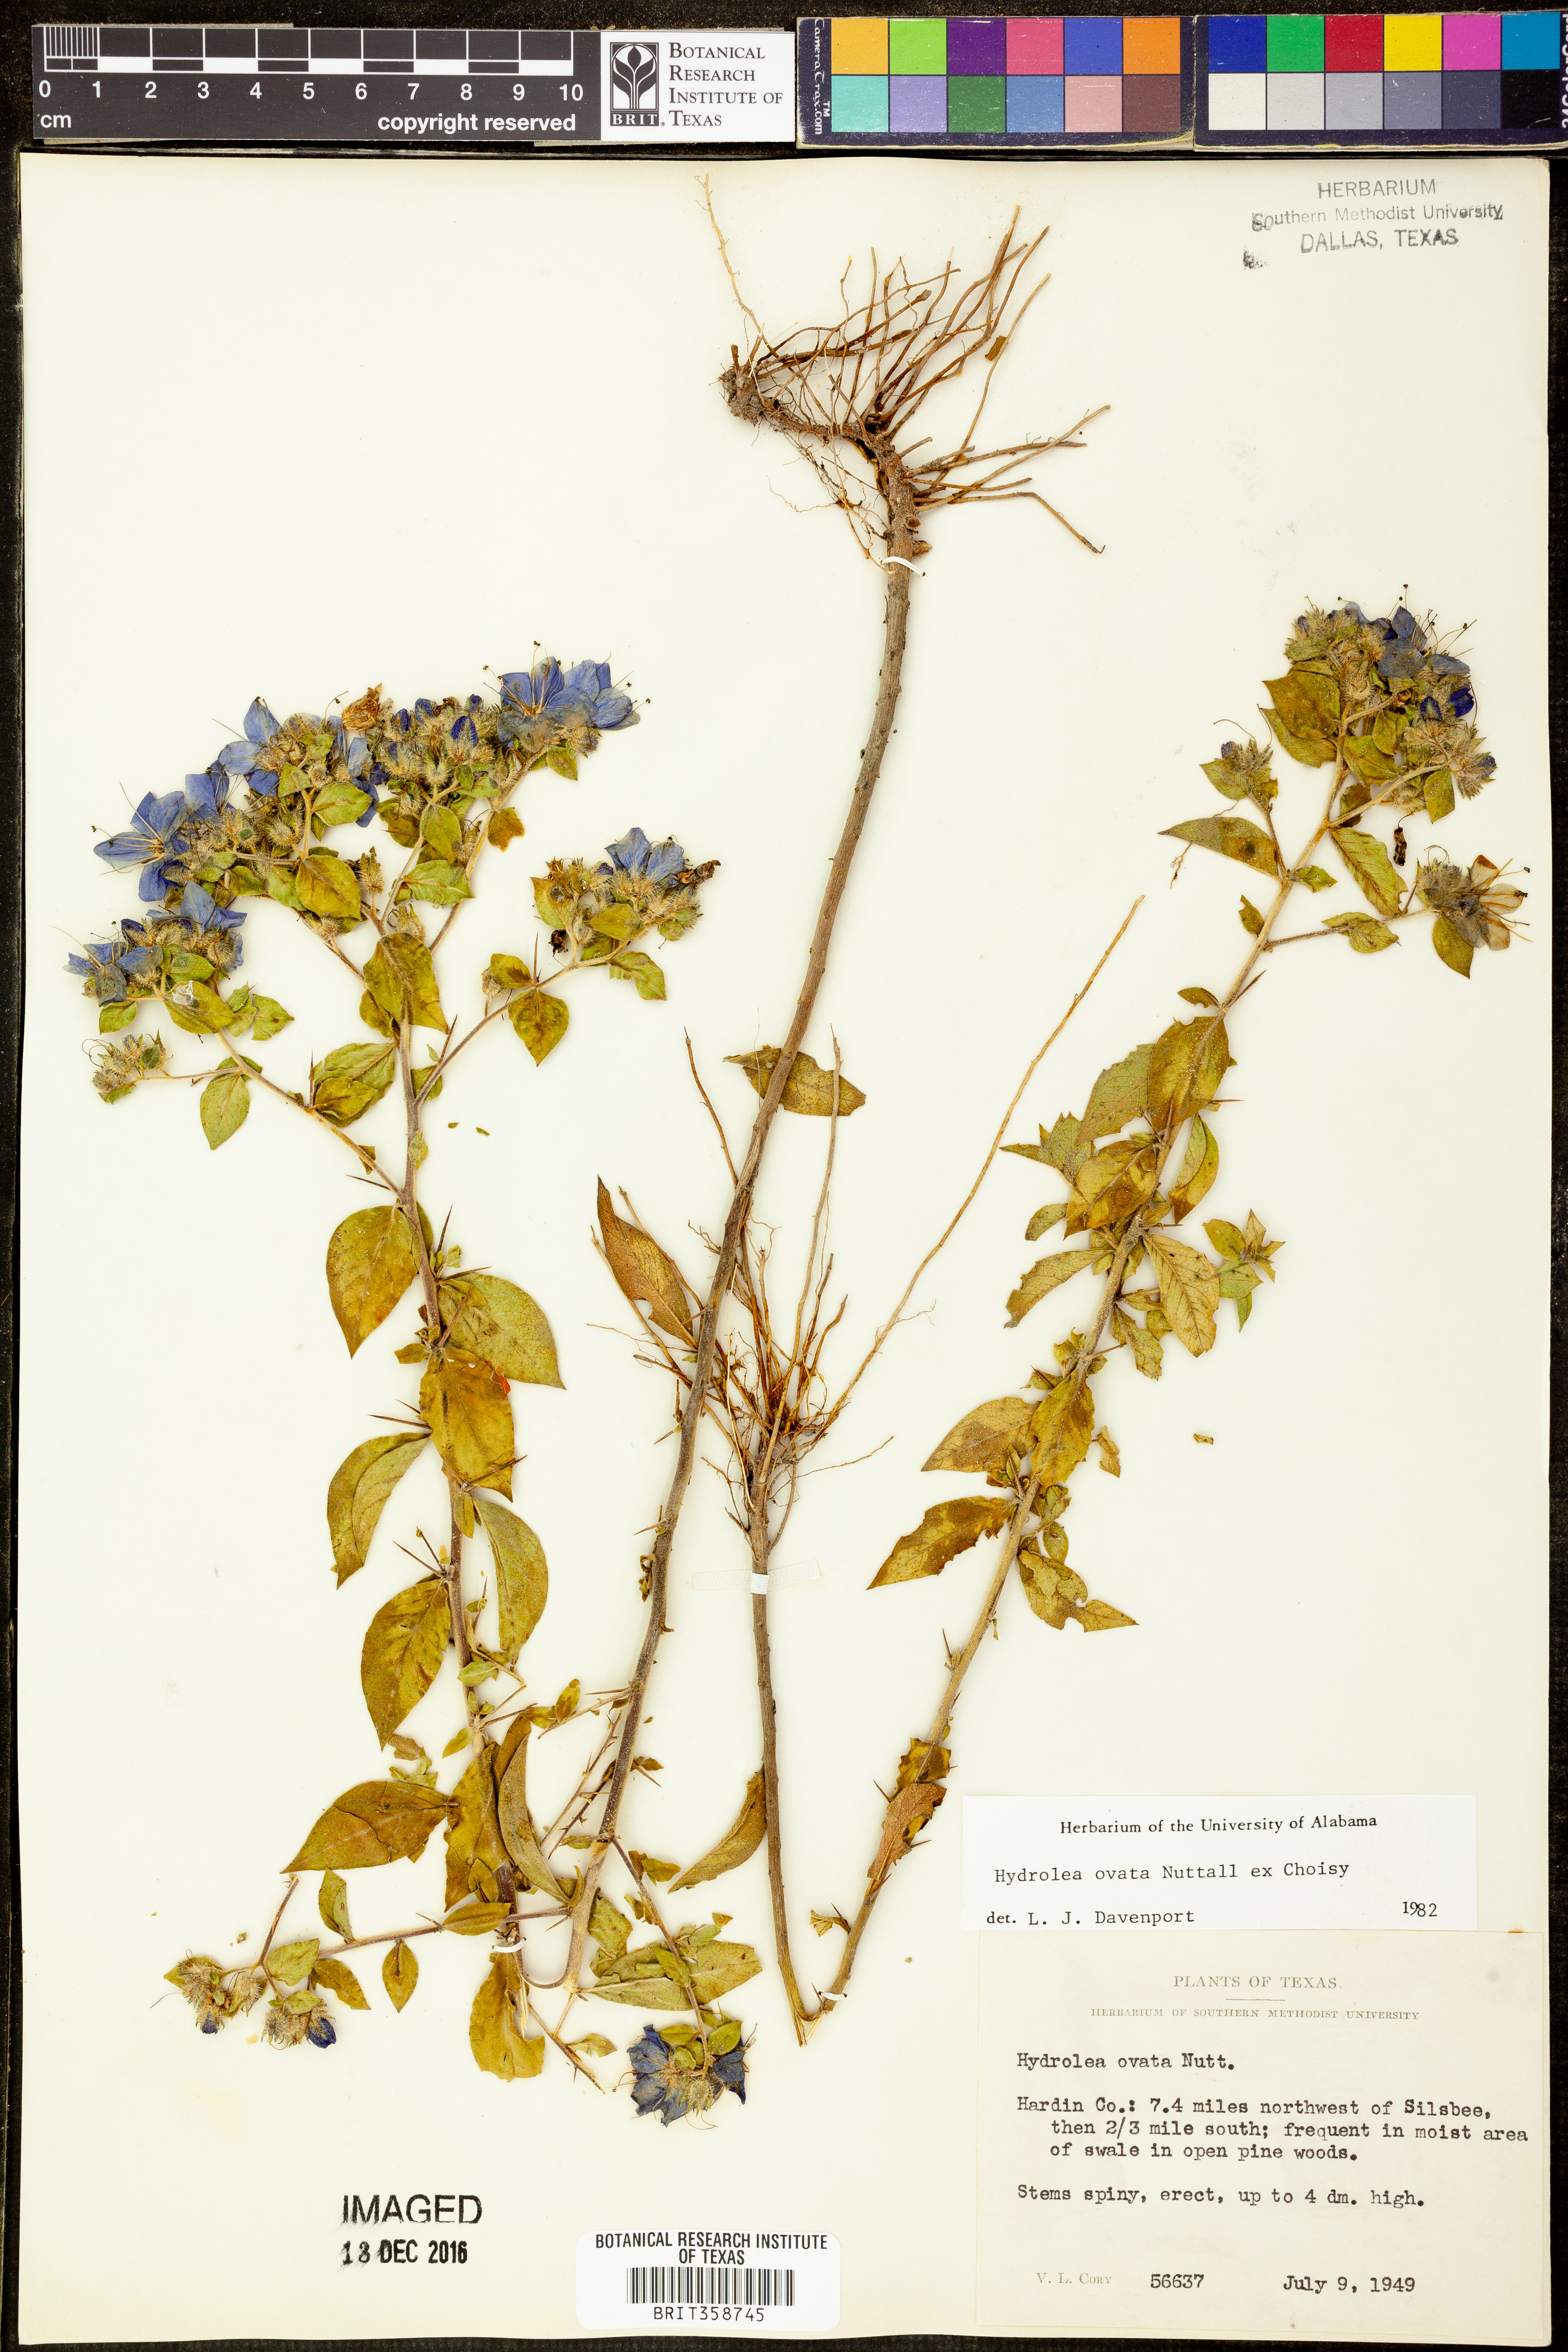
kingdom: Plantae
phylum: Tracheophyta
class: Magnoliopsida
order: Solanales
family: Hydroleaceae
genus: Hydrolea
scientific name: Hydrolea ovata
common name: Ovate false fiddleleaf
